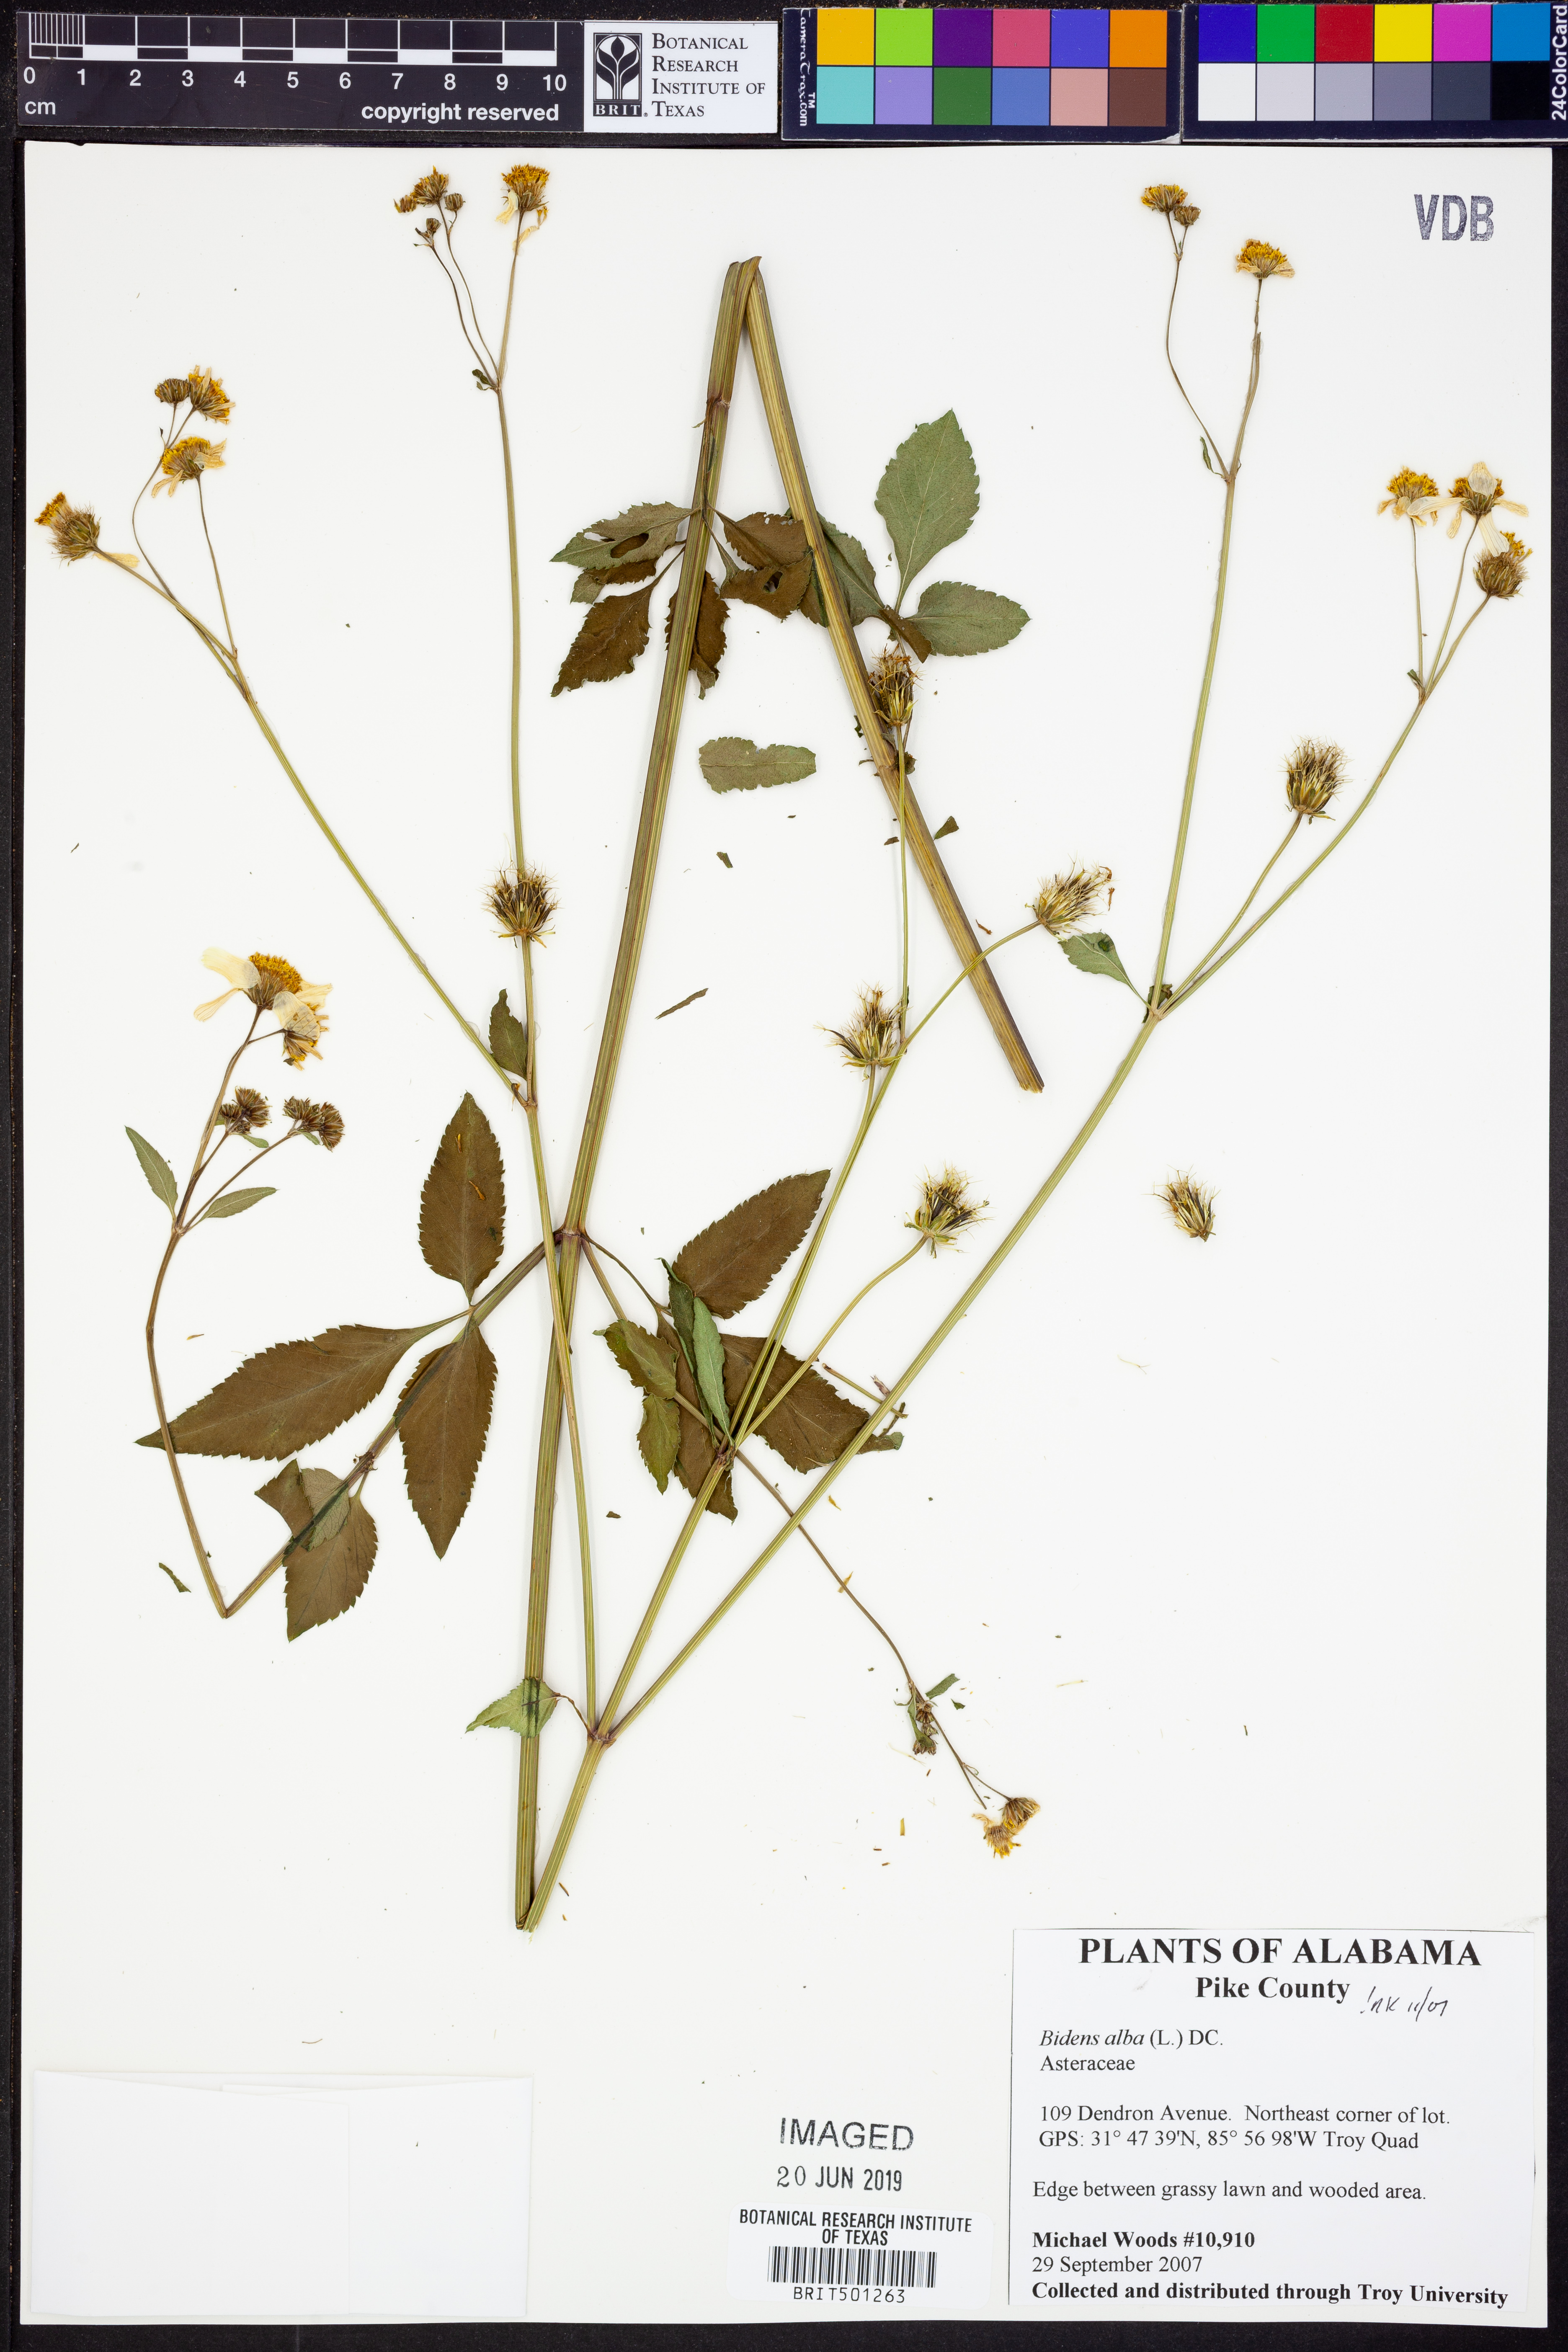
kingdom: Plantae
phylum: Tracheophyta
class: Magnoliopsida
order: Asterales
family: Asteraceae
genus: Bidens
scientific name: Bidens alba
